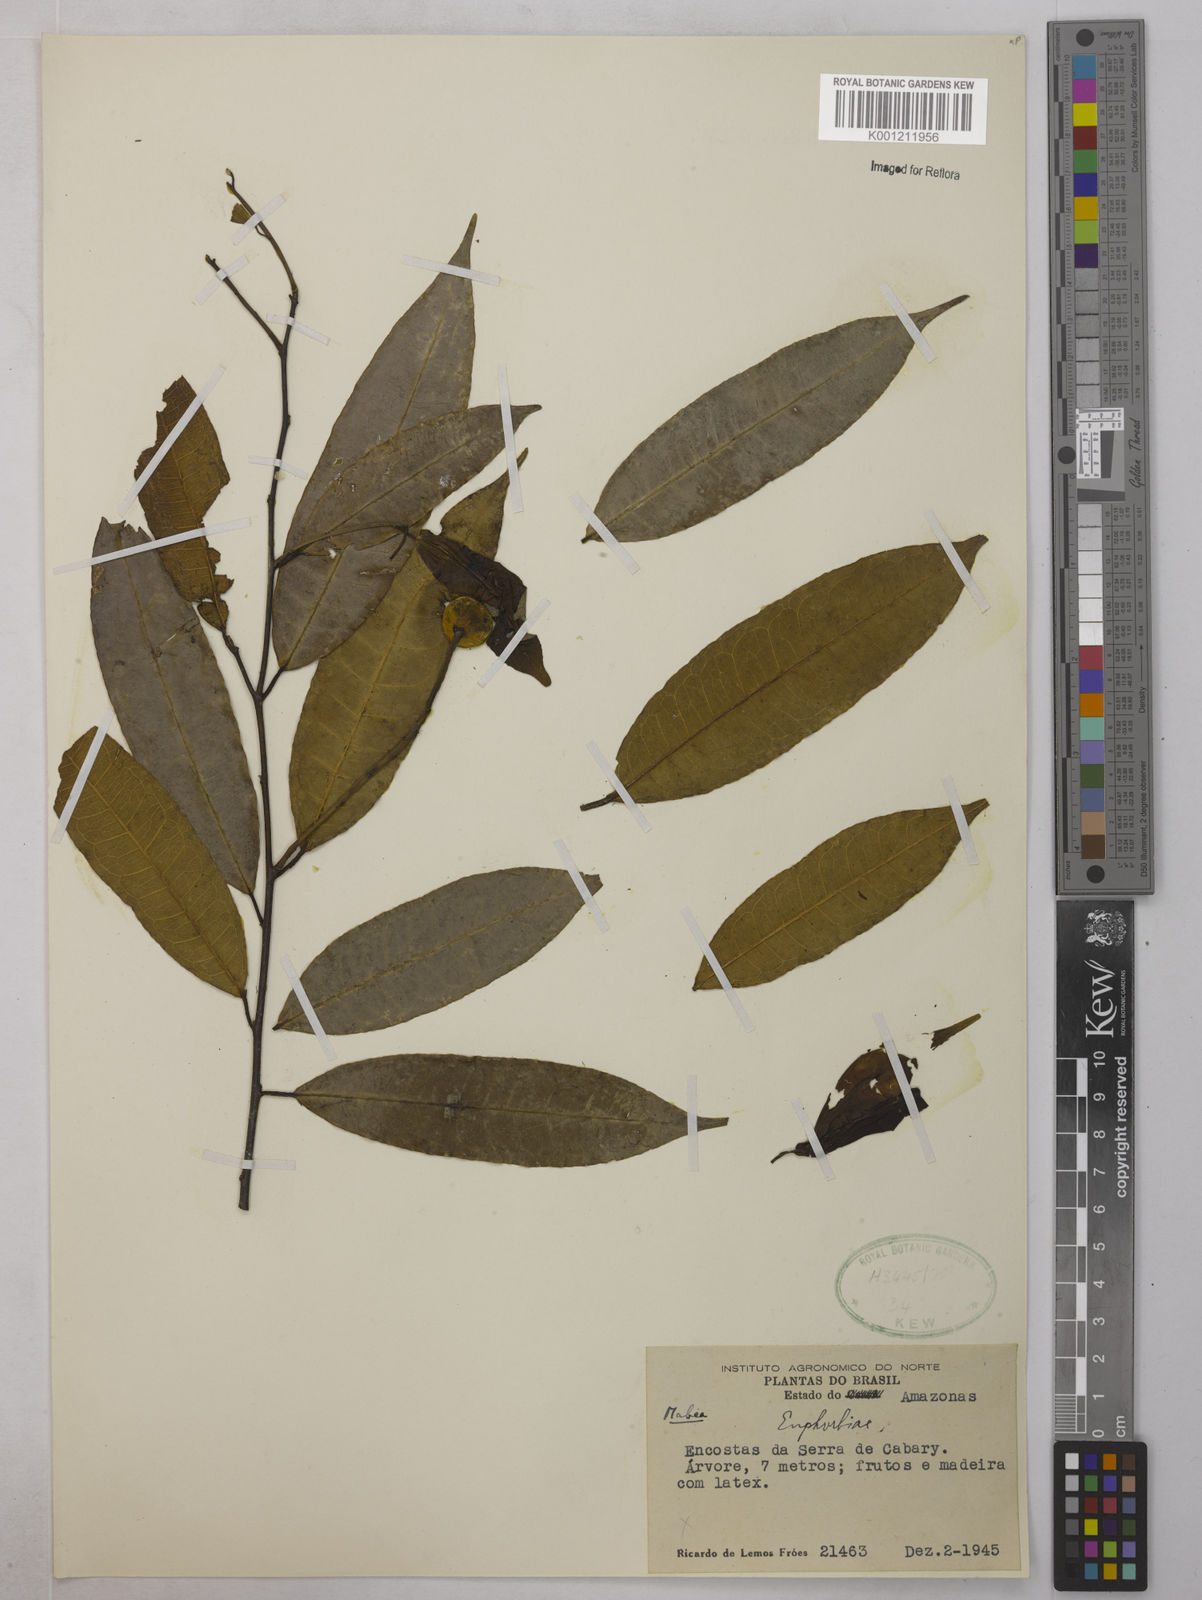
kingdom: Plantae
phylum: Tracheophyta
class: Magnoliopsida
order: Malpighiales
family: Euphorbiaceae
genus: Mabea
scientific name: Mabea
